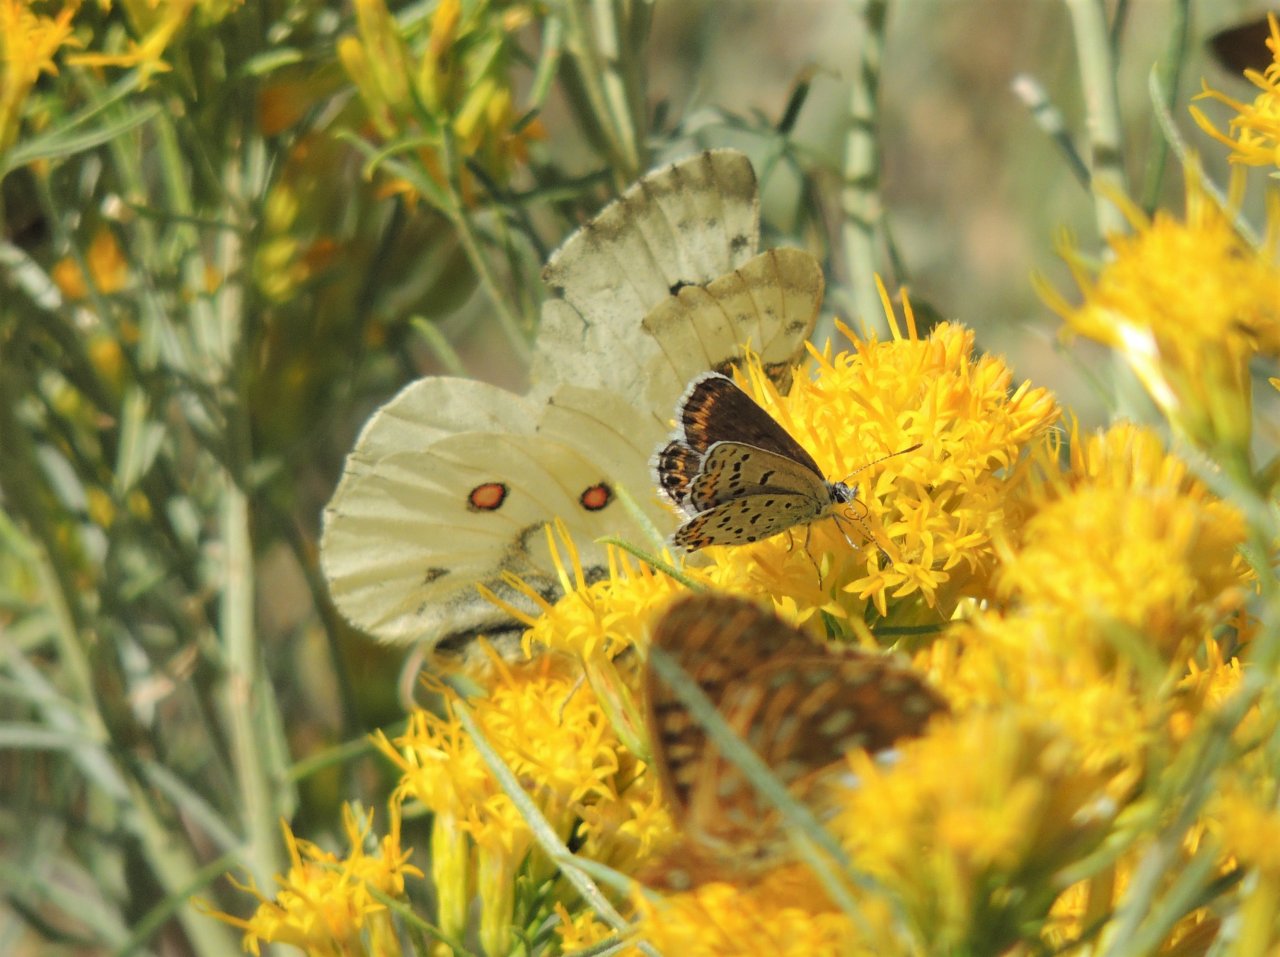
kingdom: Animalia
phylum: Arthropoda
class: Insecta
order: Lepidoptera
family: Lycaenidae
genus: Lycaeides
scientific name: Lycaeides melissa
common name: Melissa Blue
